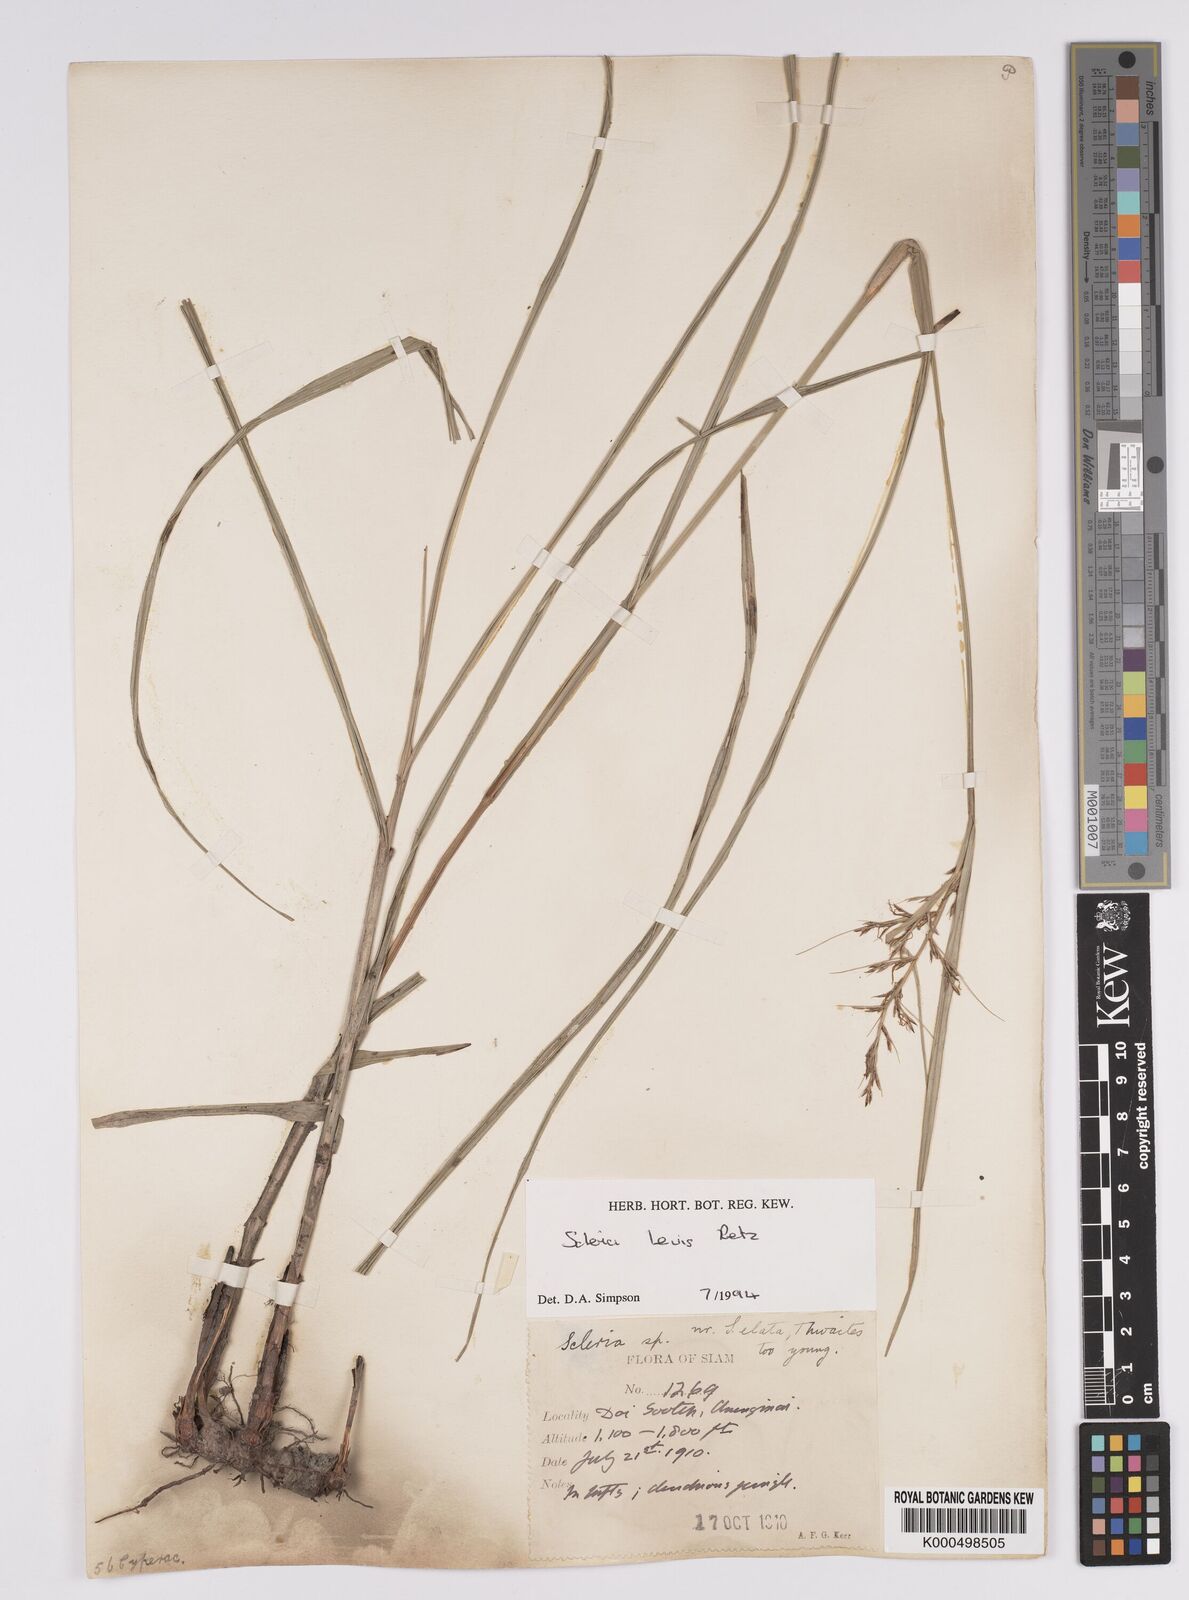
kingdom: Plantae
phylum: Tracheophyta
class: Liliopsida
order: Poales
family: Cyperaceae
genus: Scleria
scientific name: Scleria levis
